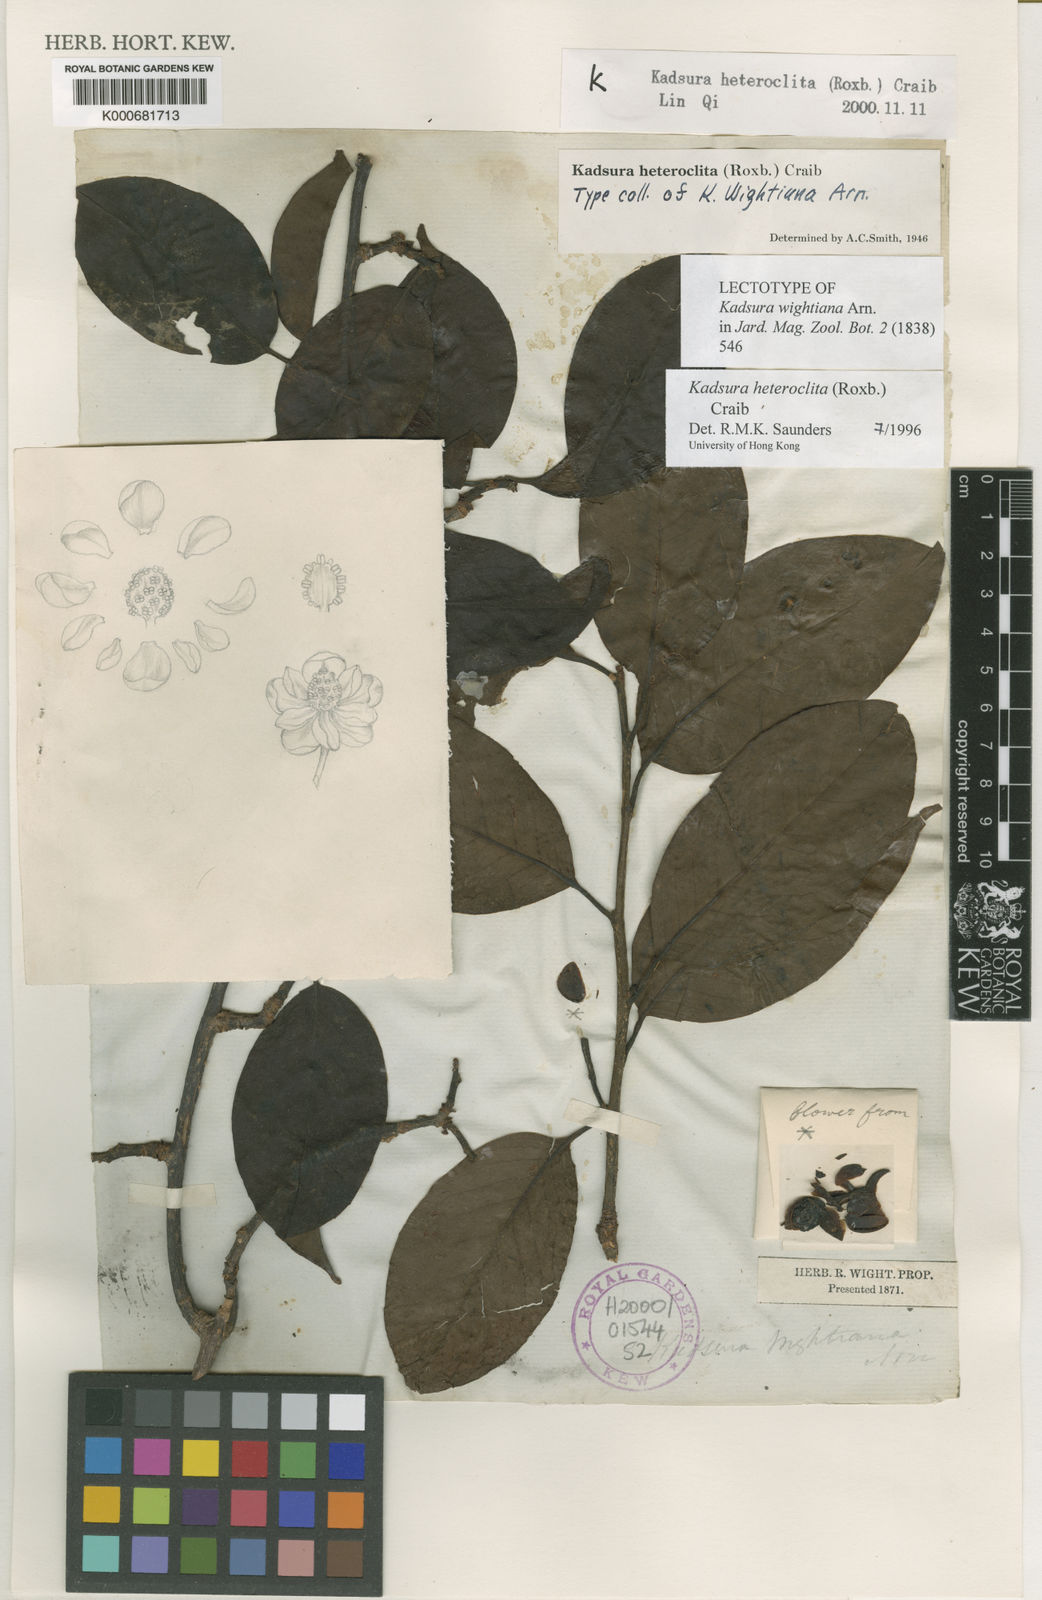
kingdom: Plantae
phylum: Tracheophyta
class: Magnoliopsida
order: Austrobaileyales
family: Schisandraceae
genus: Kadsura
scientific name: Kadsura heteroclita
